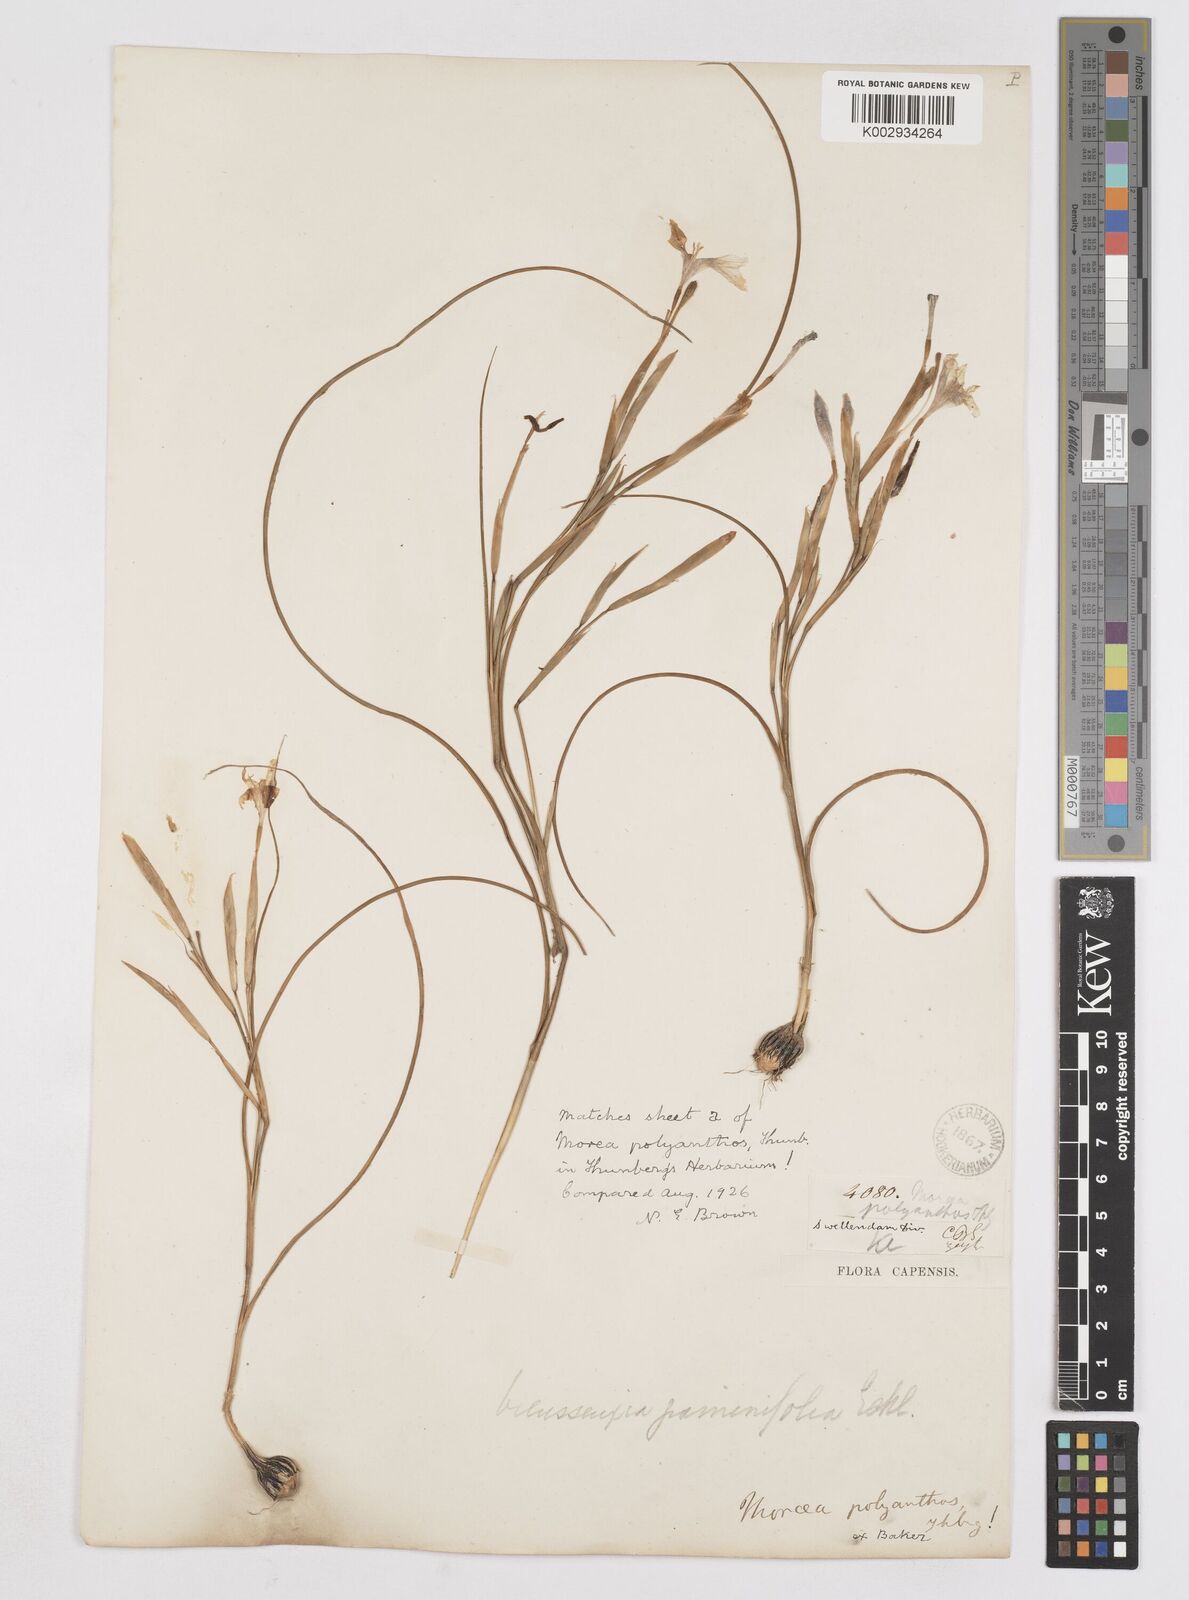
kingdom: Plantae
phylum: Tracheophyta
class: Liliopsida
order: Asparagales
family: Iridaceae
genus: Moraea
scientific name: Moraea bipartita
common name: Blue tulp
